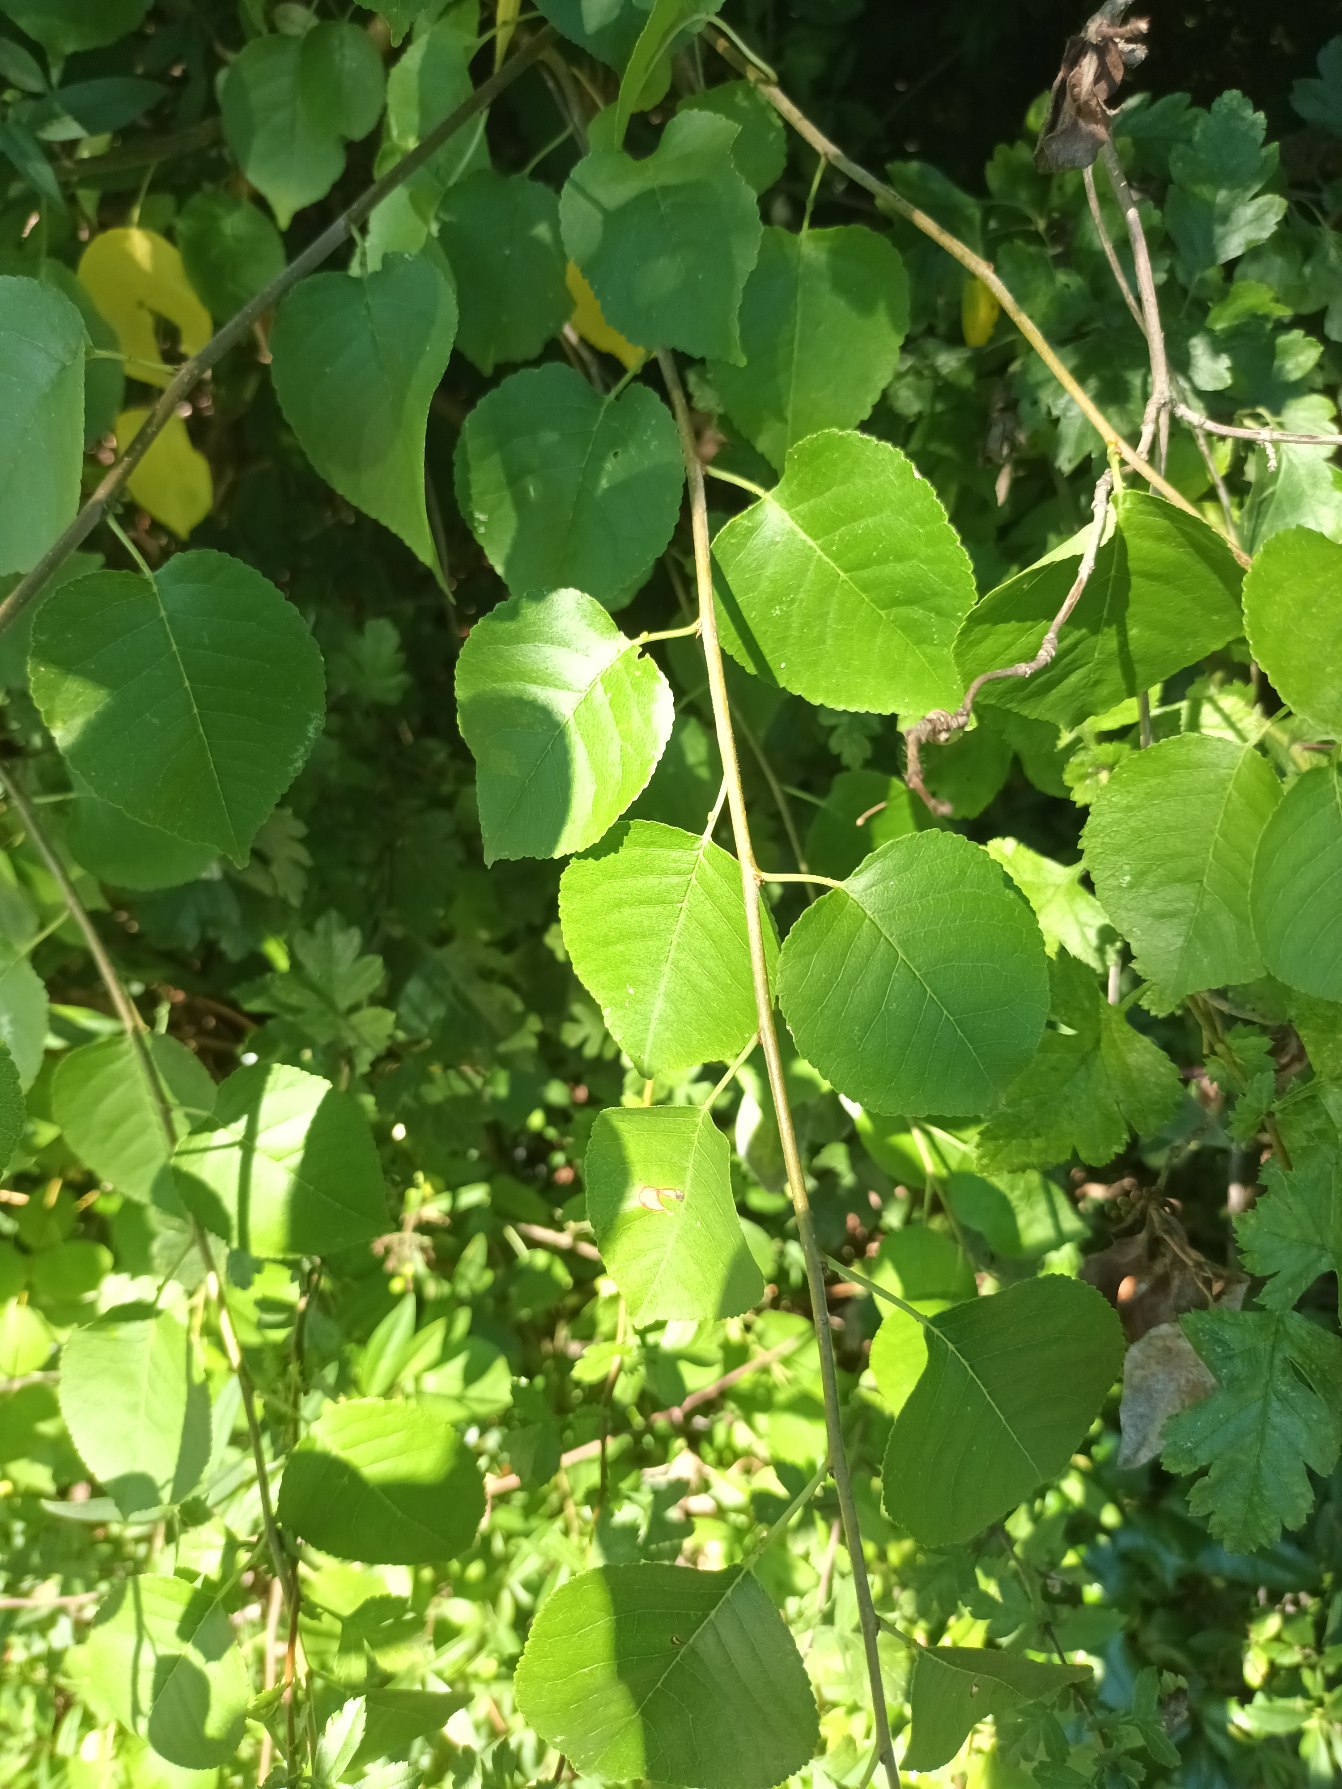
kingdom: Plantae
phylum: Tracheophyta
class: Magnoliopsida
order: Rosales
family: Rosaceae
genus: Prunus
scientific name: Prunus mahaleb
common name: Weichsel
